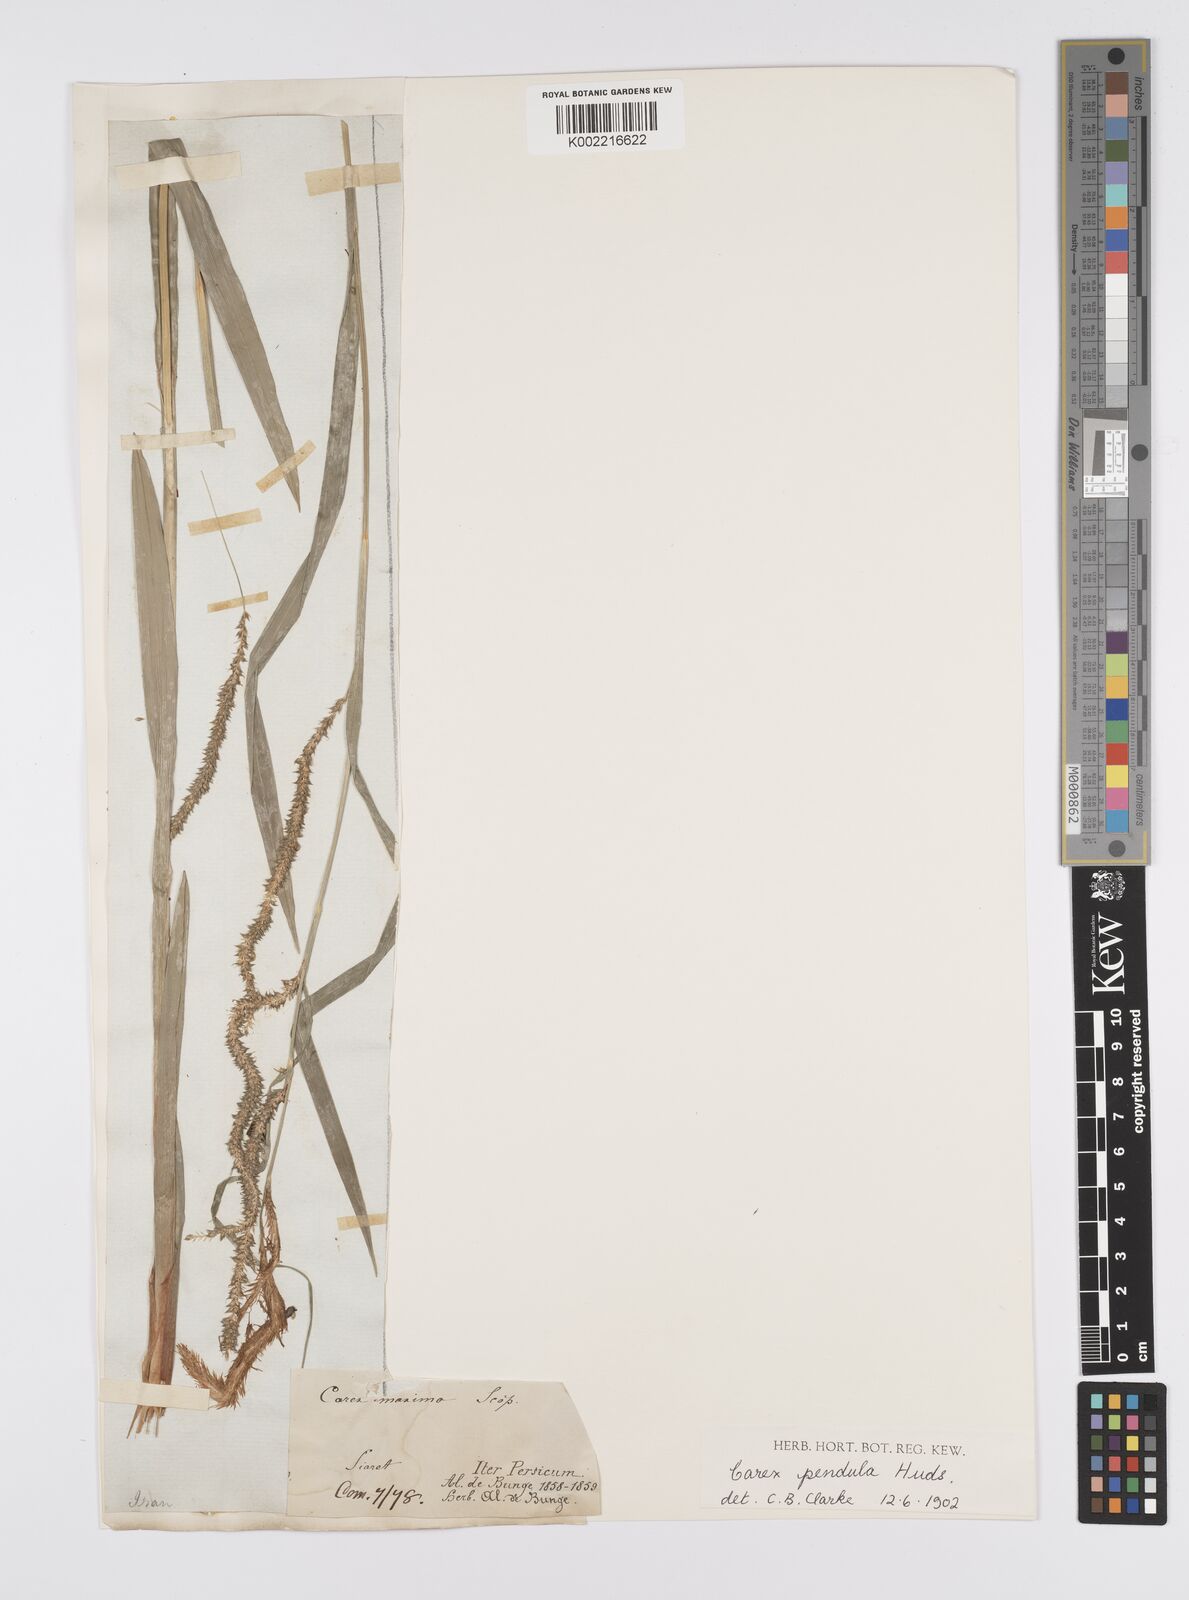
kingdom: Plantae
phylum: Tracheophyta
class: Liliopsida
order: Poales
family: Cyperaceae
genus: Carex
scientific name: Carex pendula
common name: Pendulous sedge
